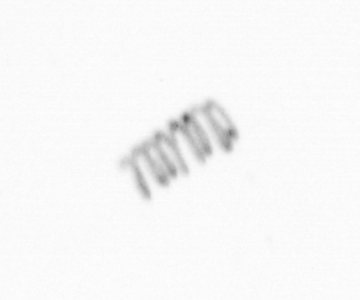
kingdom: Chromista
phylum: Ochrophyta
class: Bacillariophyceae
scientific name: Bacillariophyceae
